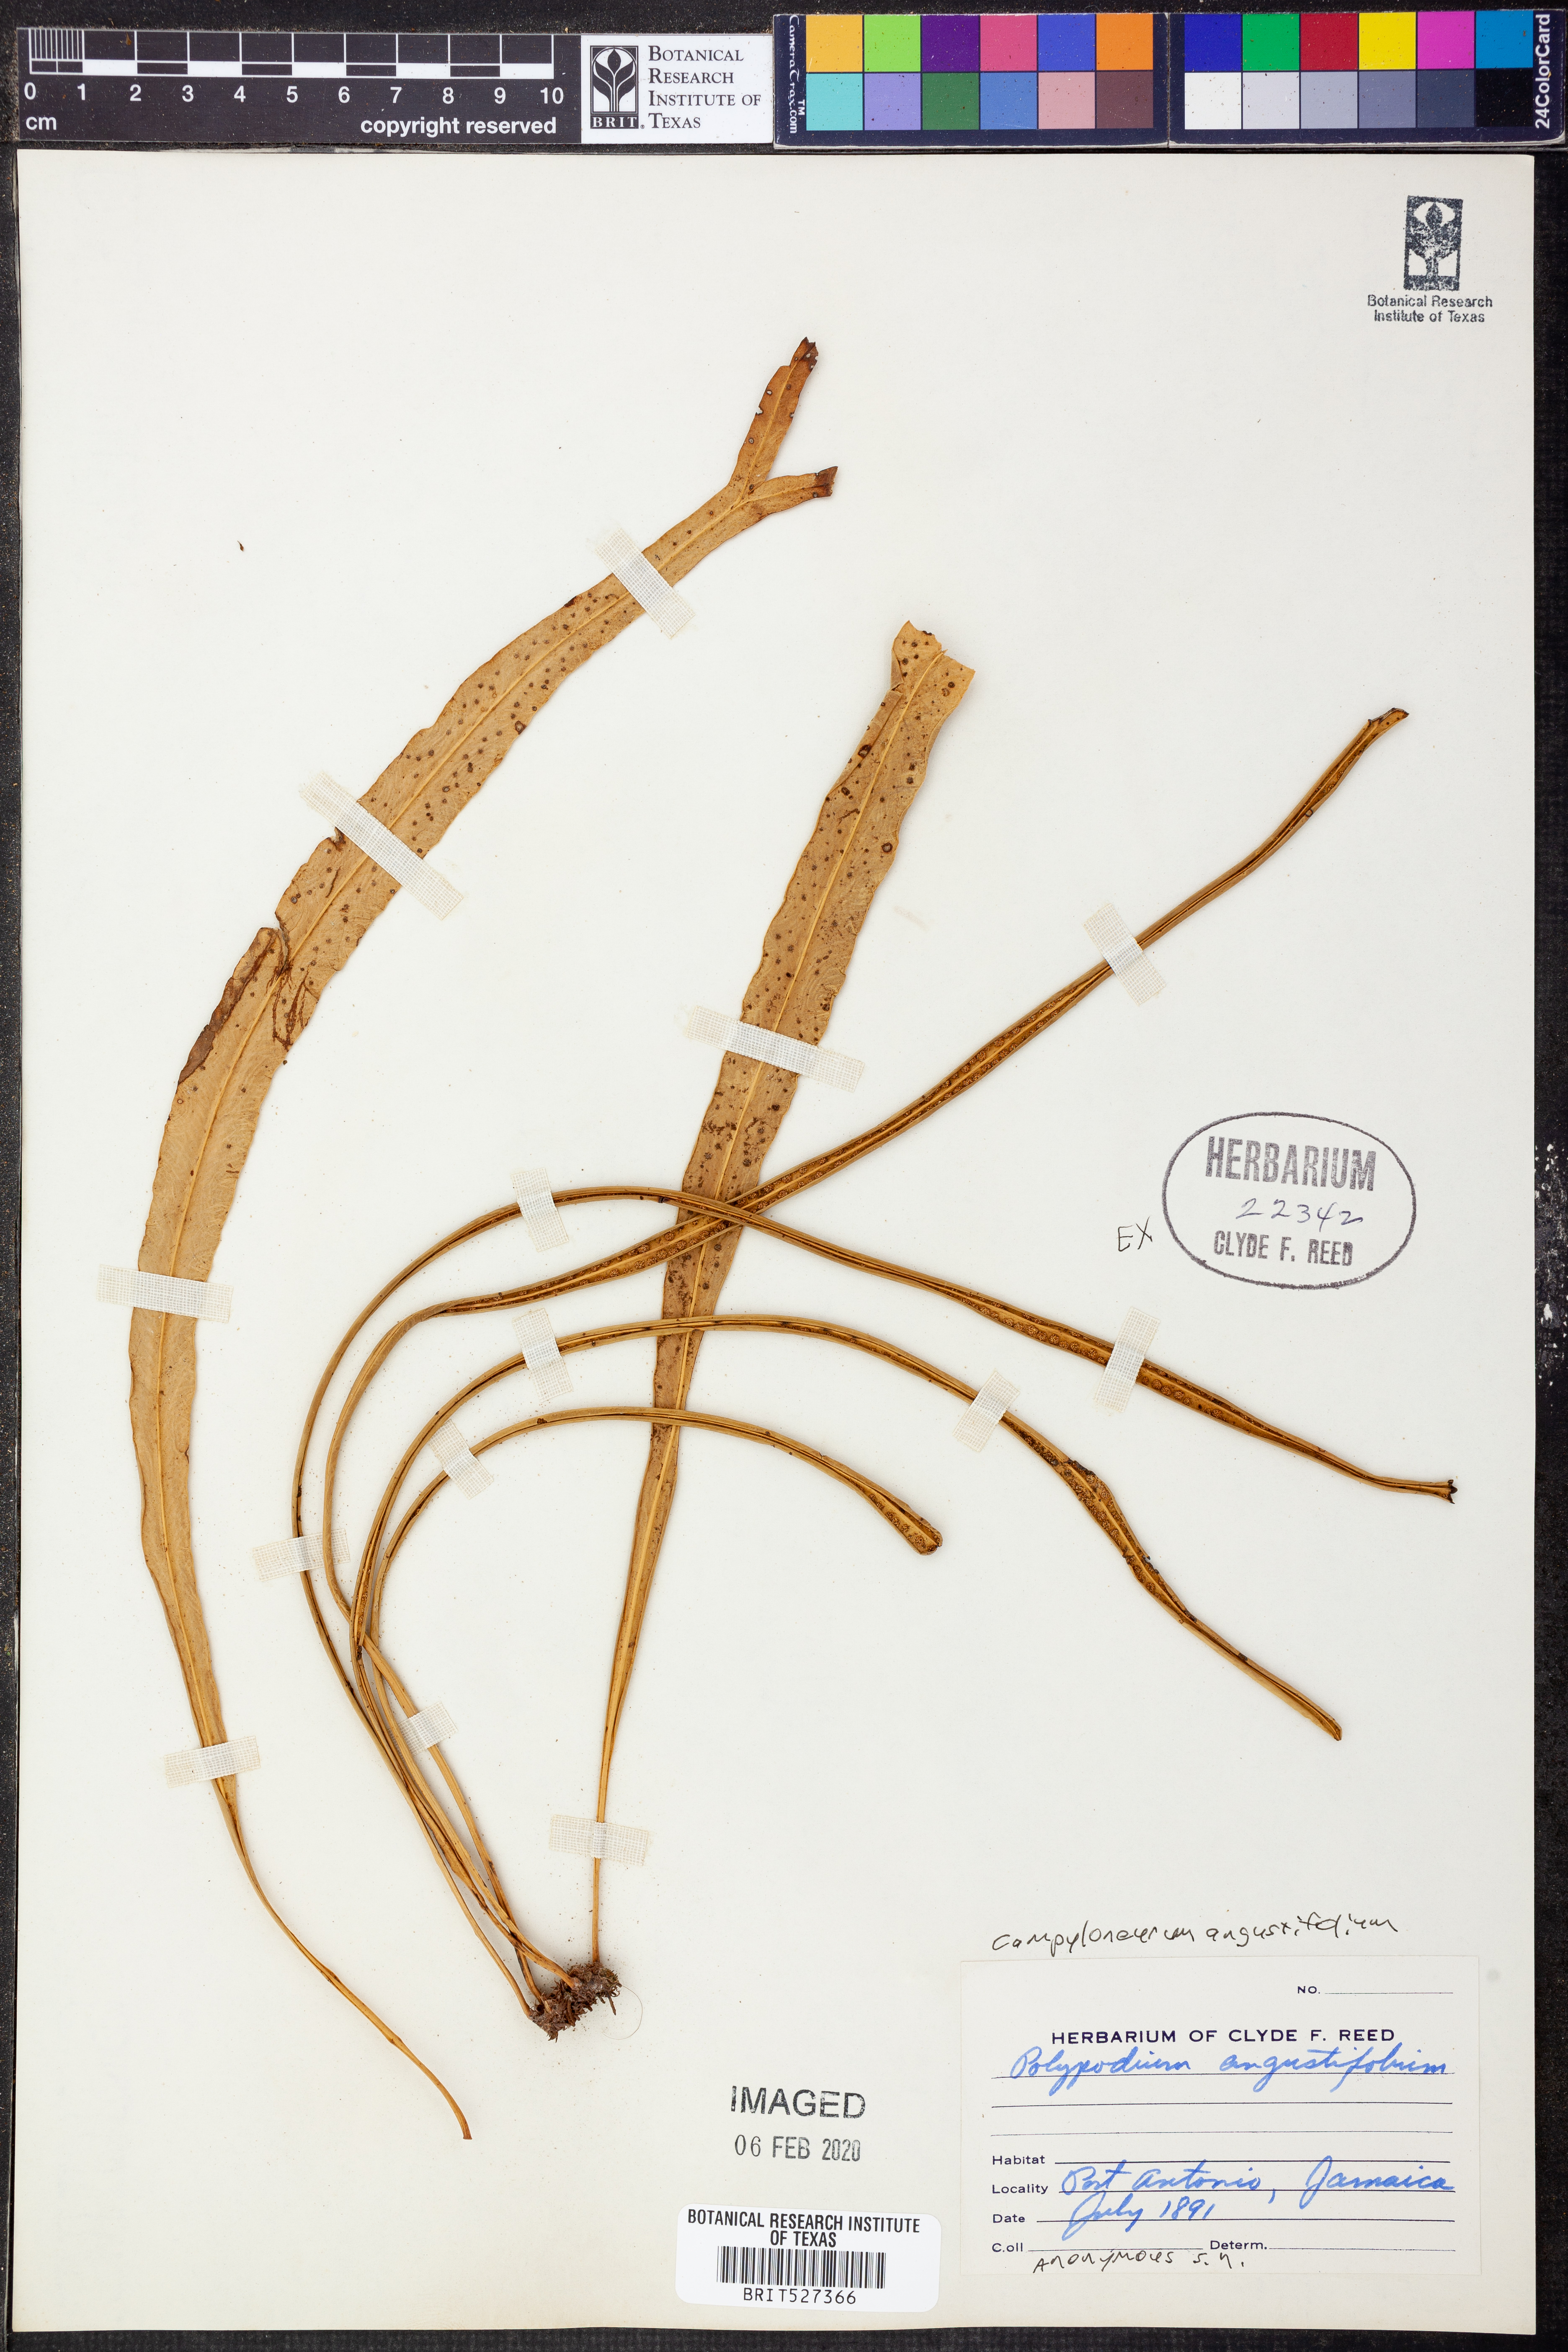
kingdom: Plantae
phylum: Tracheophyta
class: Polypodiopsida
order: Polypodiales
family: Polypodiaceae
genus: Campyloneurum
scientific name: Campyloneurum angustifolium
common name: Narrow-leaf strap fern
